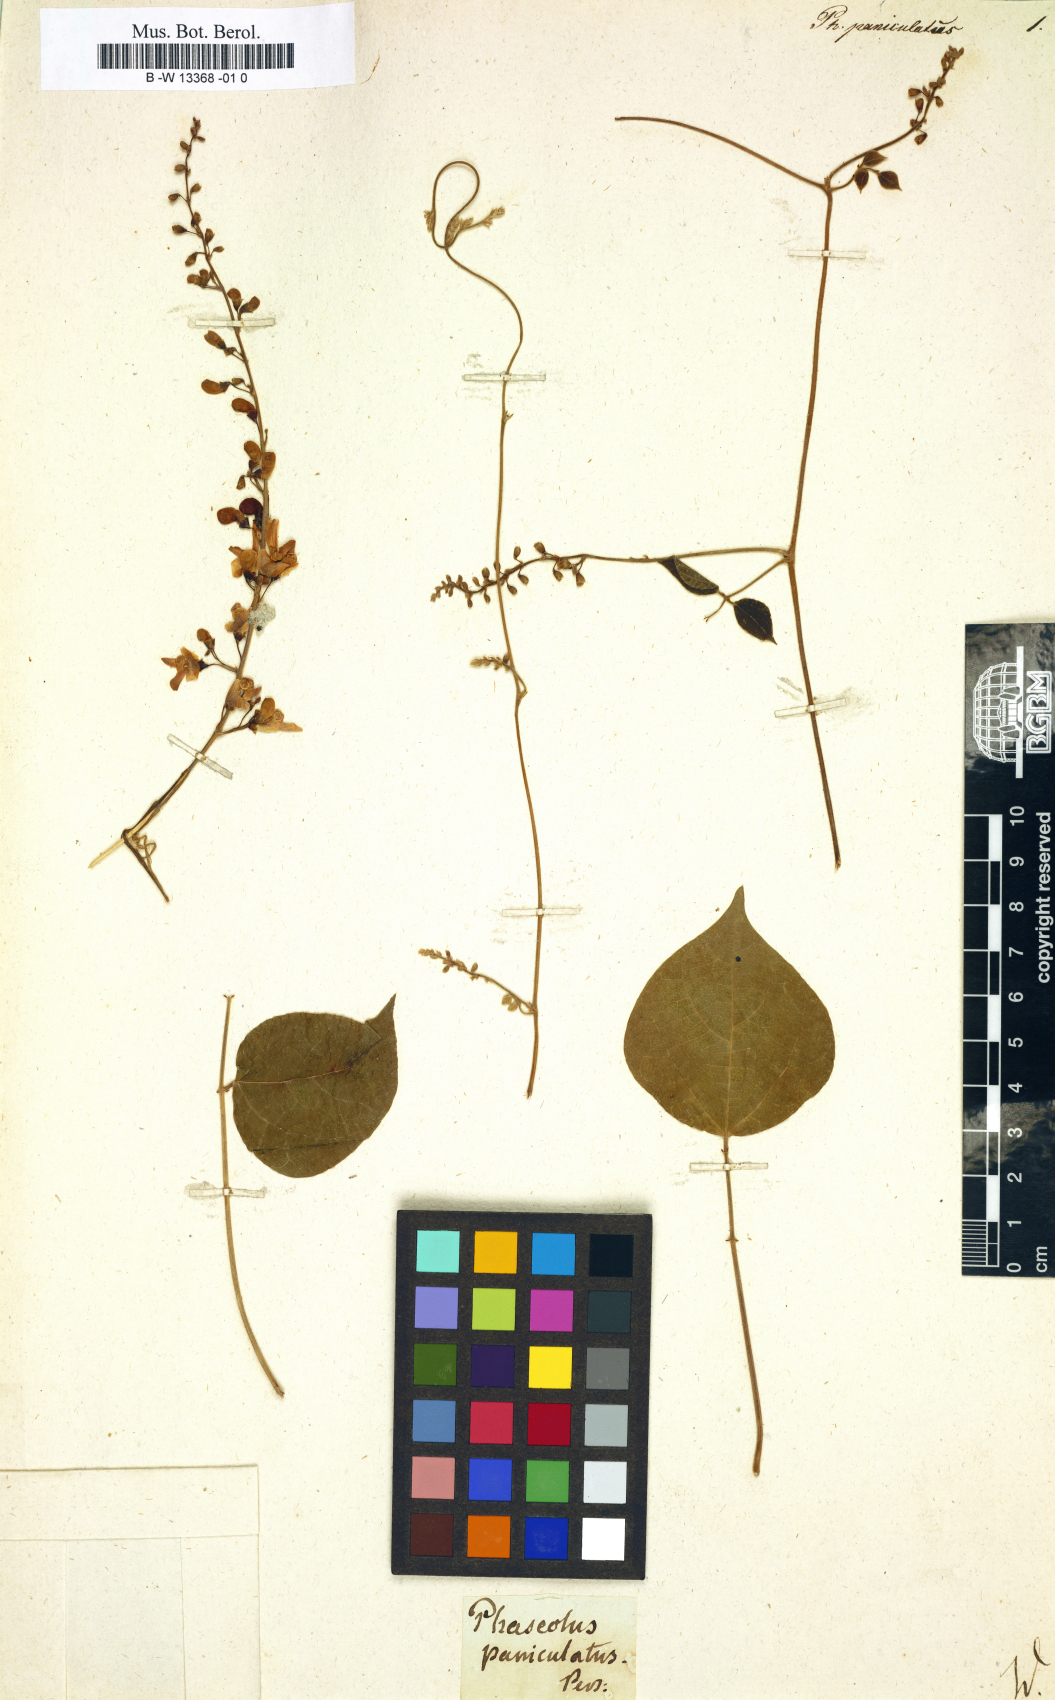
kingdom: Plantae
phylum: Tracheophyta
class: Magnoliopsida
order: Fabales
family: Fabaceae
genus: Phaseolus
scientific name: Phaseolus polystachios
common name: Thicket bean
